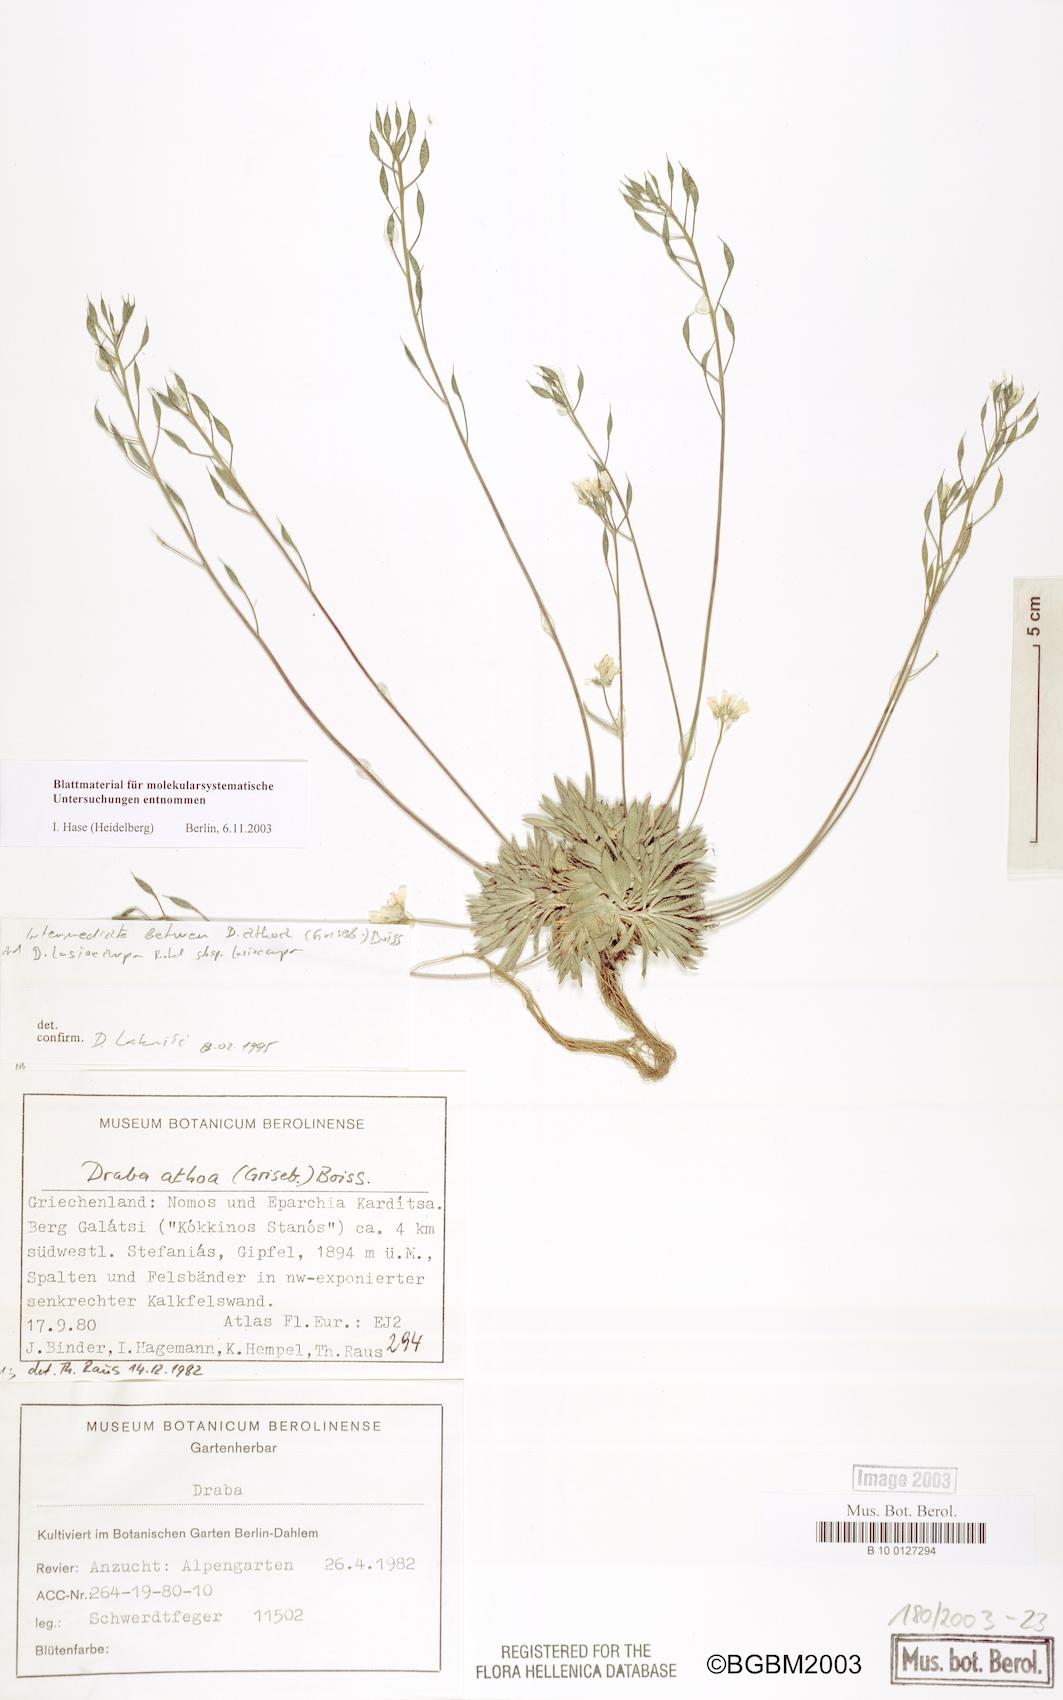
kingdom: Plantae
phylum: Tracheophyta
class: Magnoliopsida
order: Brassicales
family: Brassicaceae
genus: Draba
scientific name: Draba lasiocarpa
